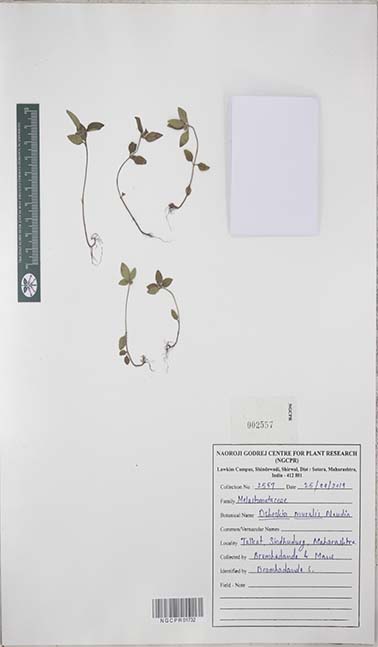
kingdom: Plantae
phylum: Tracheophyta
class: Magnoliopsida
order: Myrtales
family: Melastomataceae
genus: Osbeckia
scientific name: Osbeckia muralis
